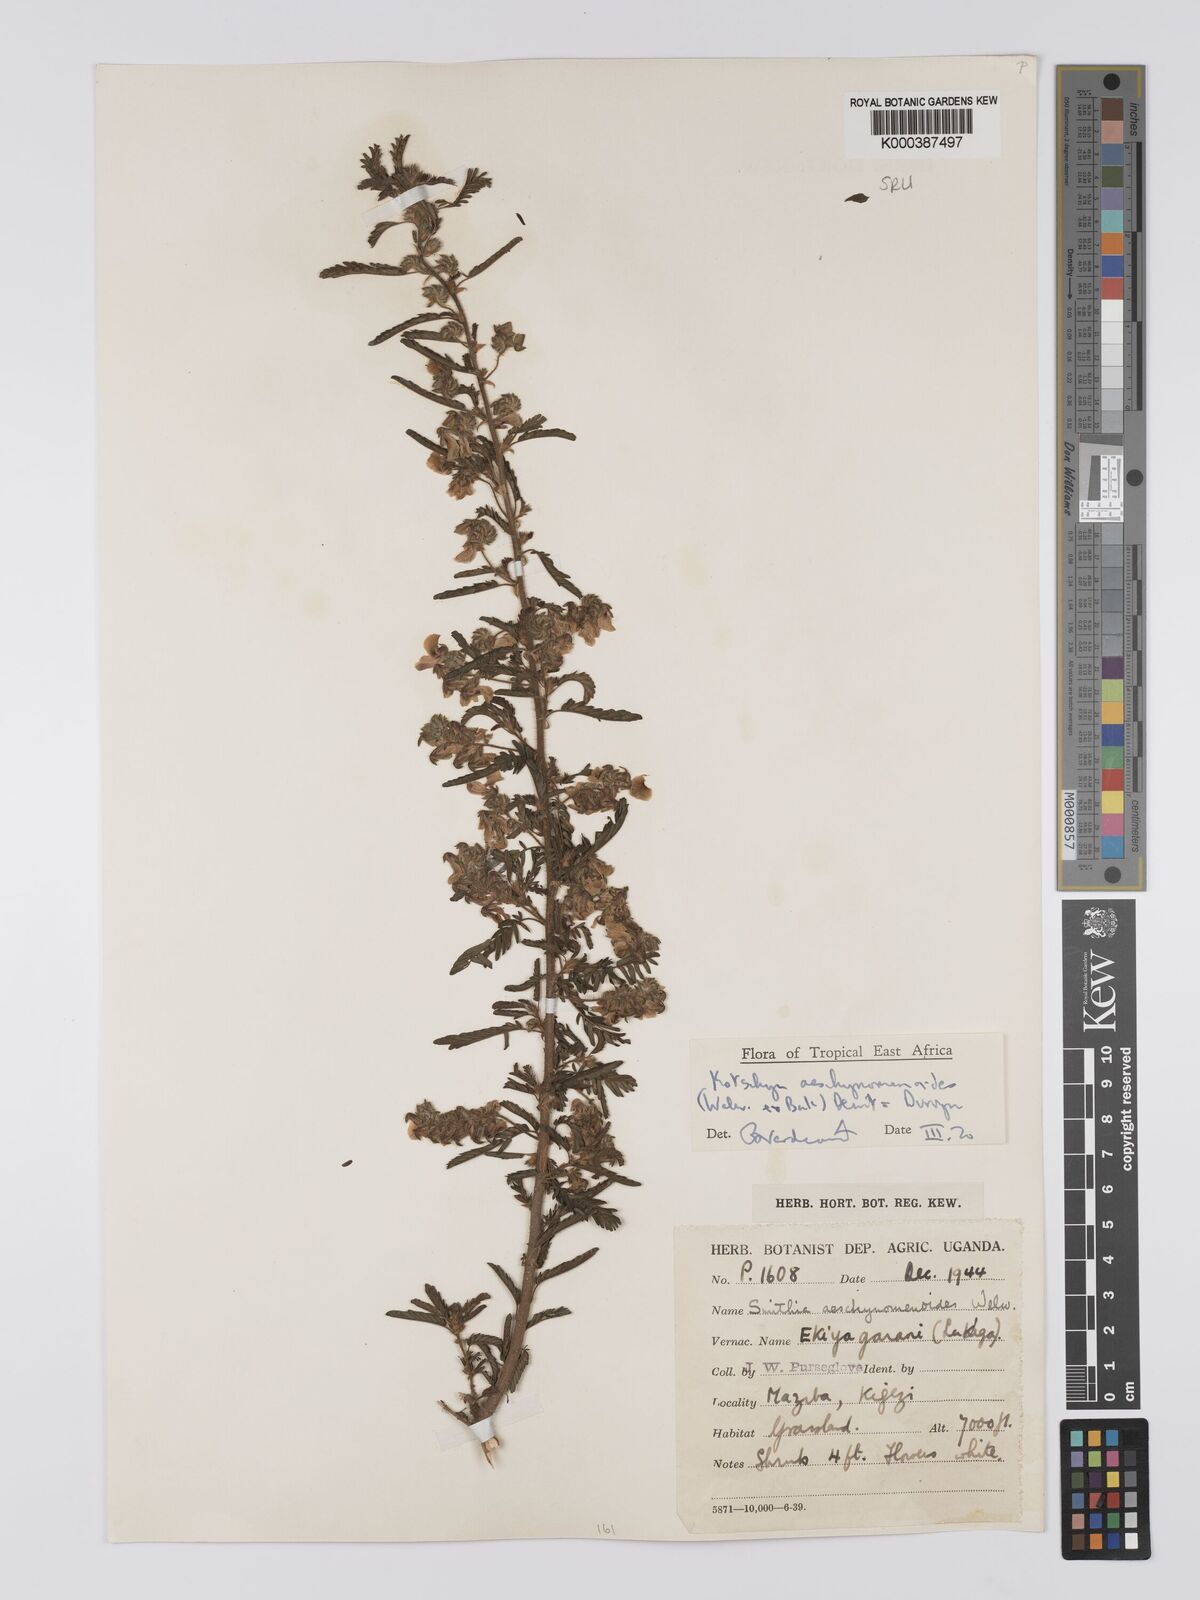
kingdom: Plantae
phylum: Tracheophyta
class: Magnoliopsida
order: Fabales
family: Fabaceae
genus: Kotschya
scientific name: Kotschya aeschynomenoides
